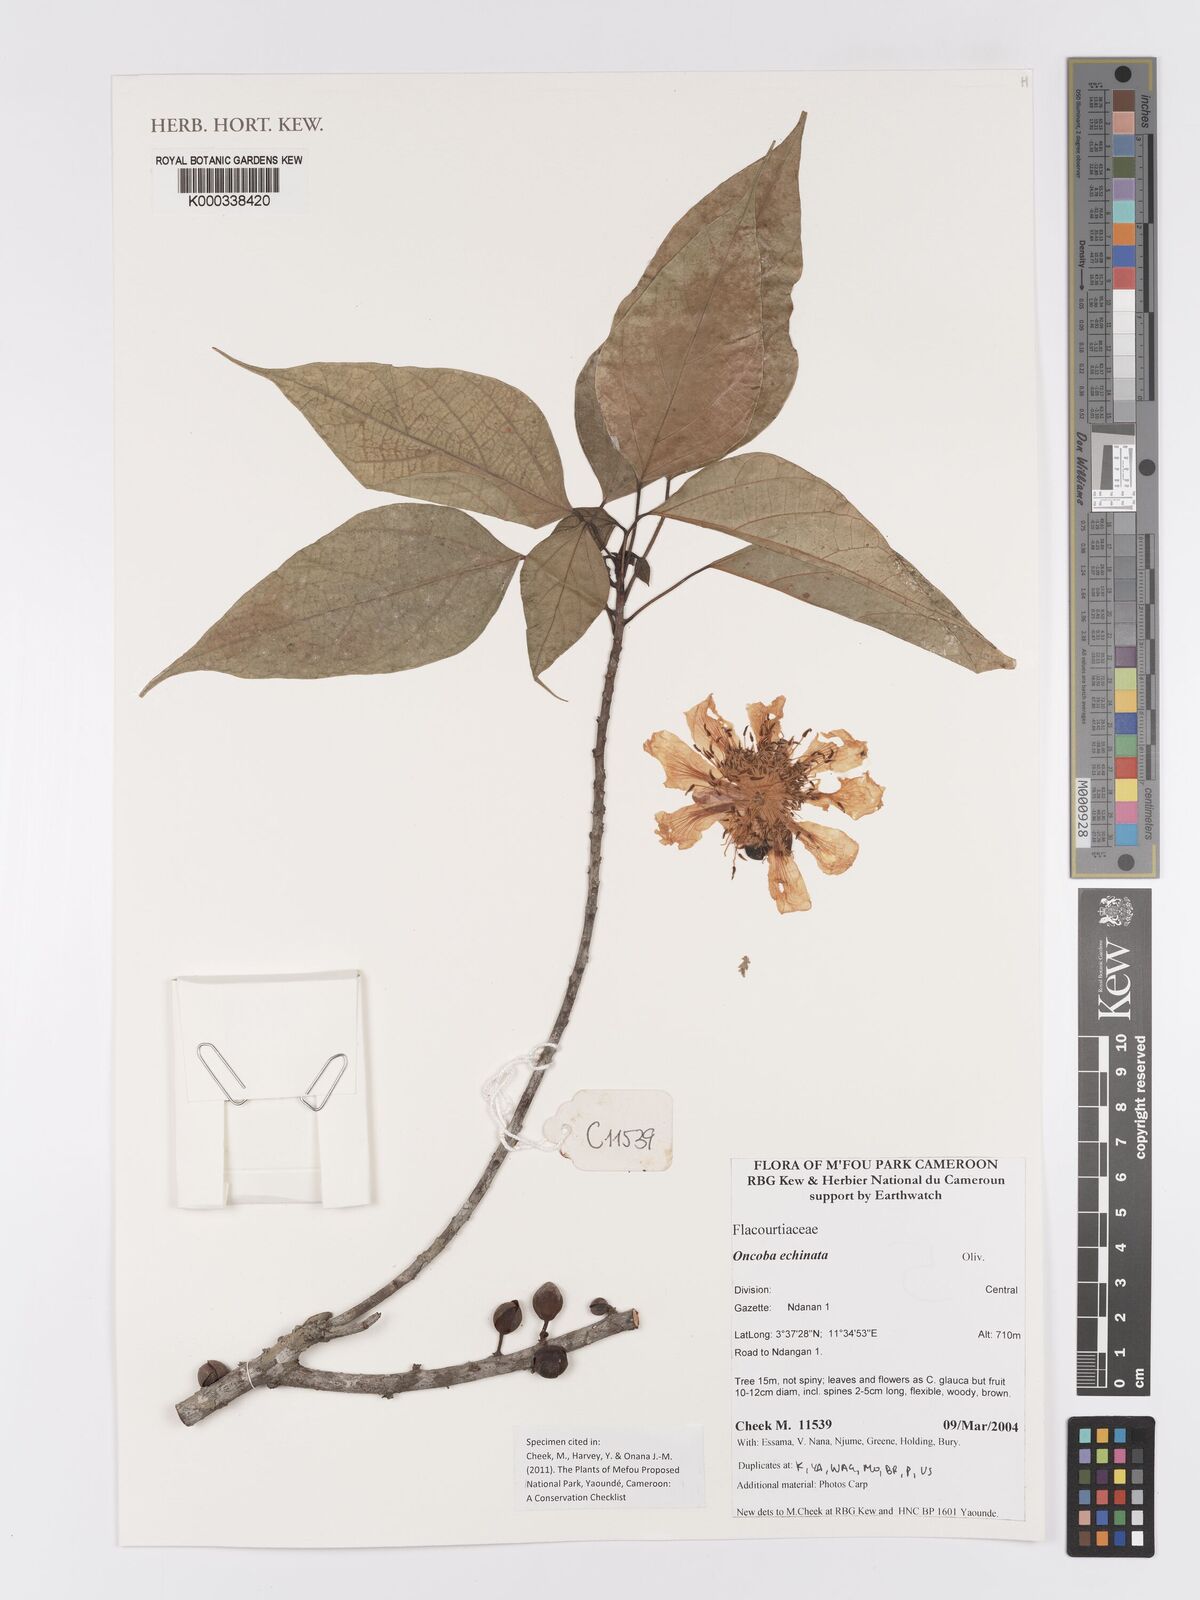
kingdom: Plantae
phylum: Tracheophyta
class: Magnoliopsida
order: Malpighiales
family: Achariaceae
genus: Caloncoba
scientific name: Caloncoba echinata
